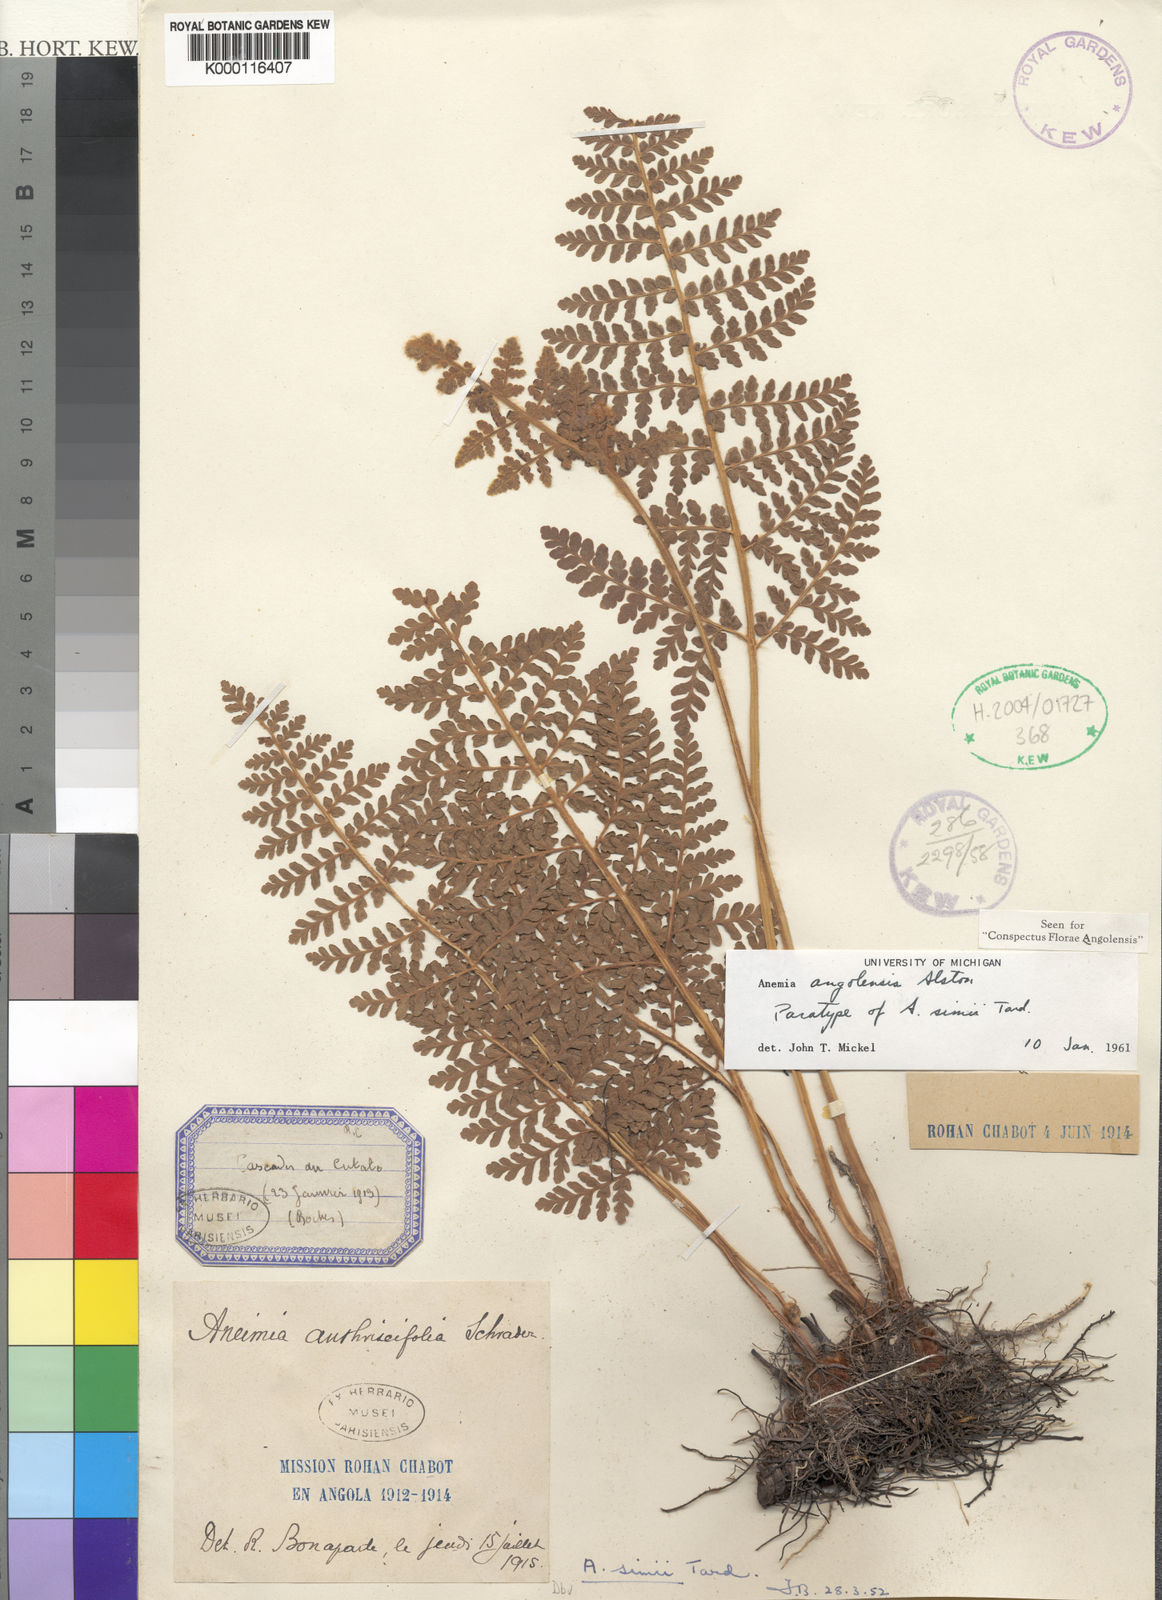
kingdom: Plantae
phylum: Tracheophyta
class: Polypodiopsida
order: Schizaeales
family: Anemiaceae
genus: Anemia
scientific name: Anemia simii
